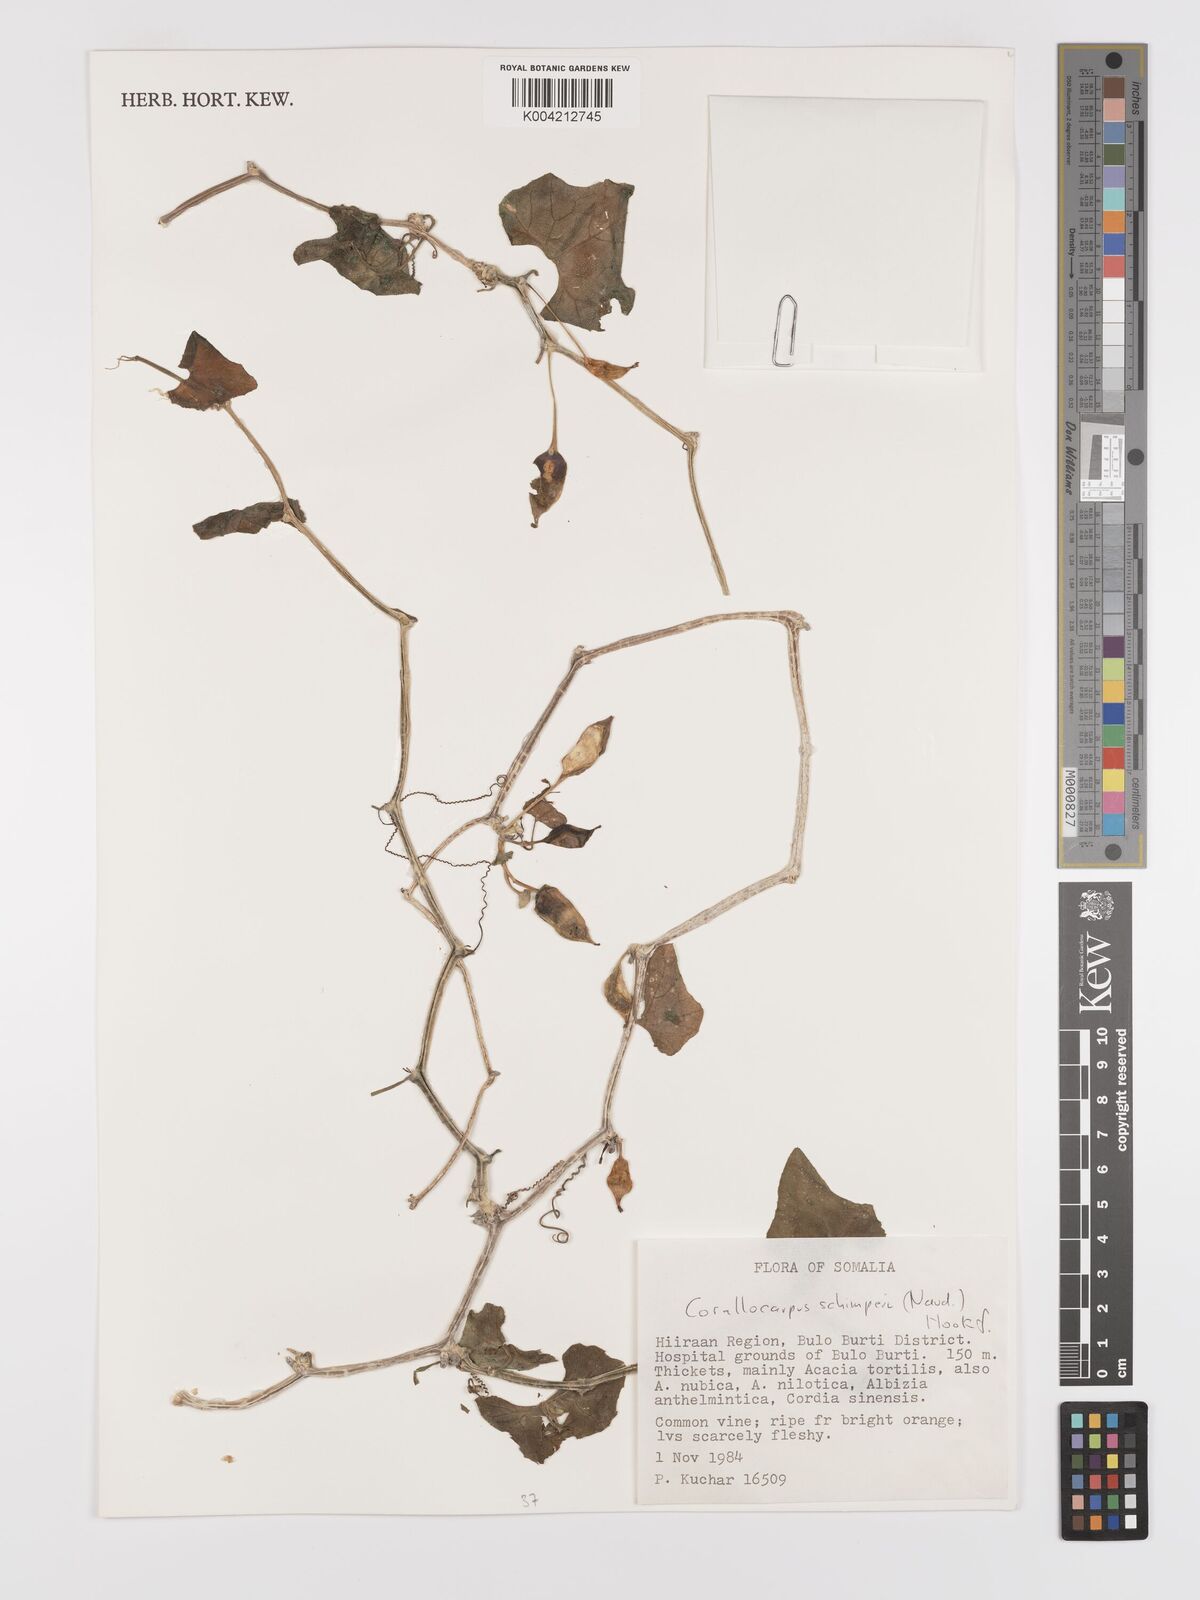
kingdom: Plantae
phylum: Tracheophyta
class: Magnoliopsida
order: Cucurbitales
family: Cucurbitaceae
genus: Corallocarpus
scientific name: Corallocarpus schimperi
